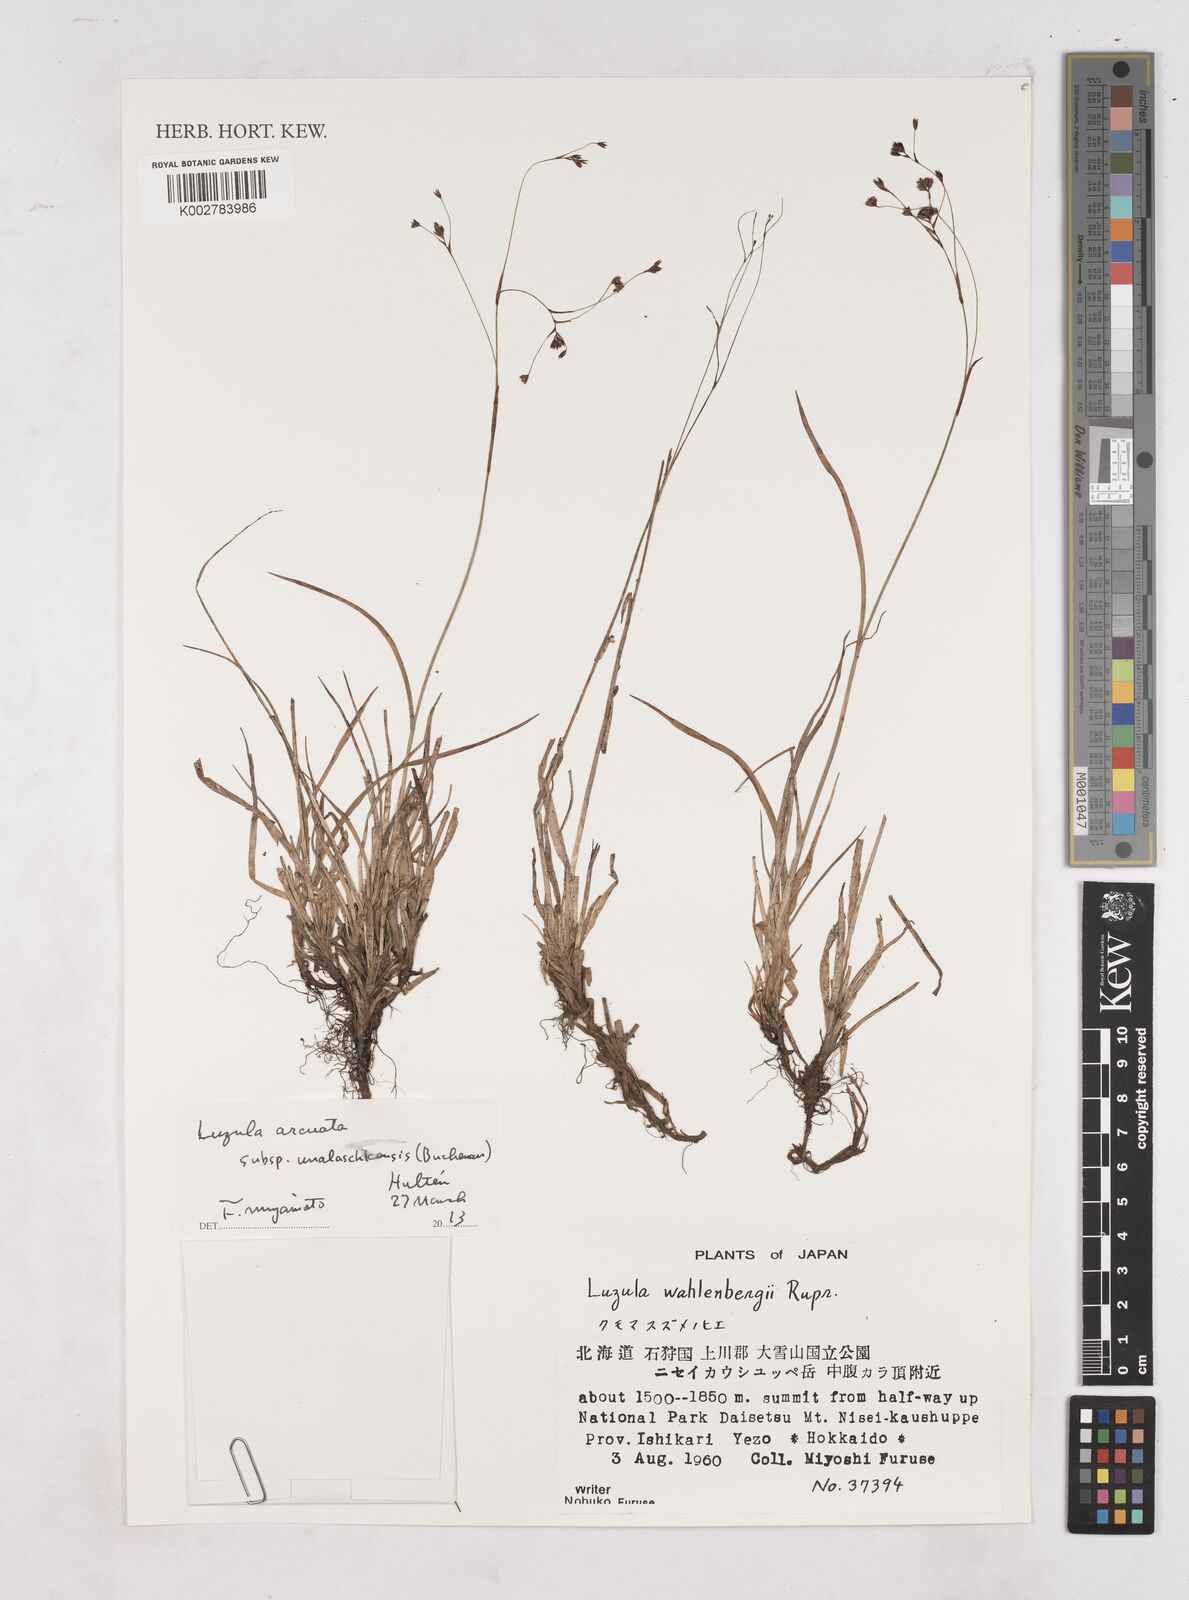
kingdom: Plantae
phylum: Tracheophyta
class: Liliopsida
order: Poales
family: Juncaceae
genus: Luzula
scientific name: Luzula arcuata
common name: Curved wood-rush
